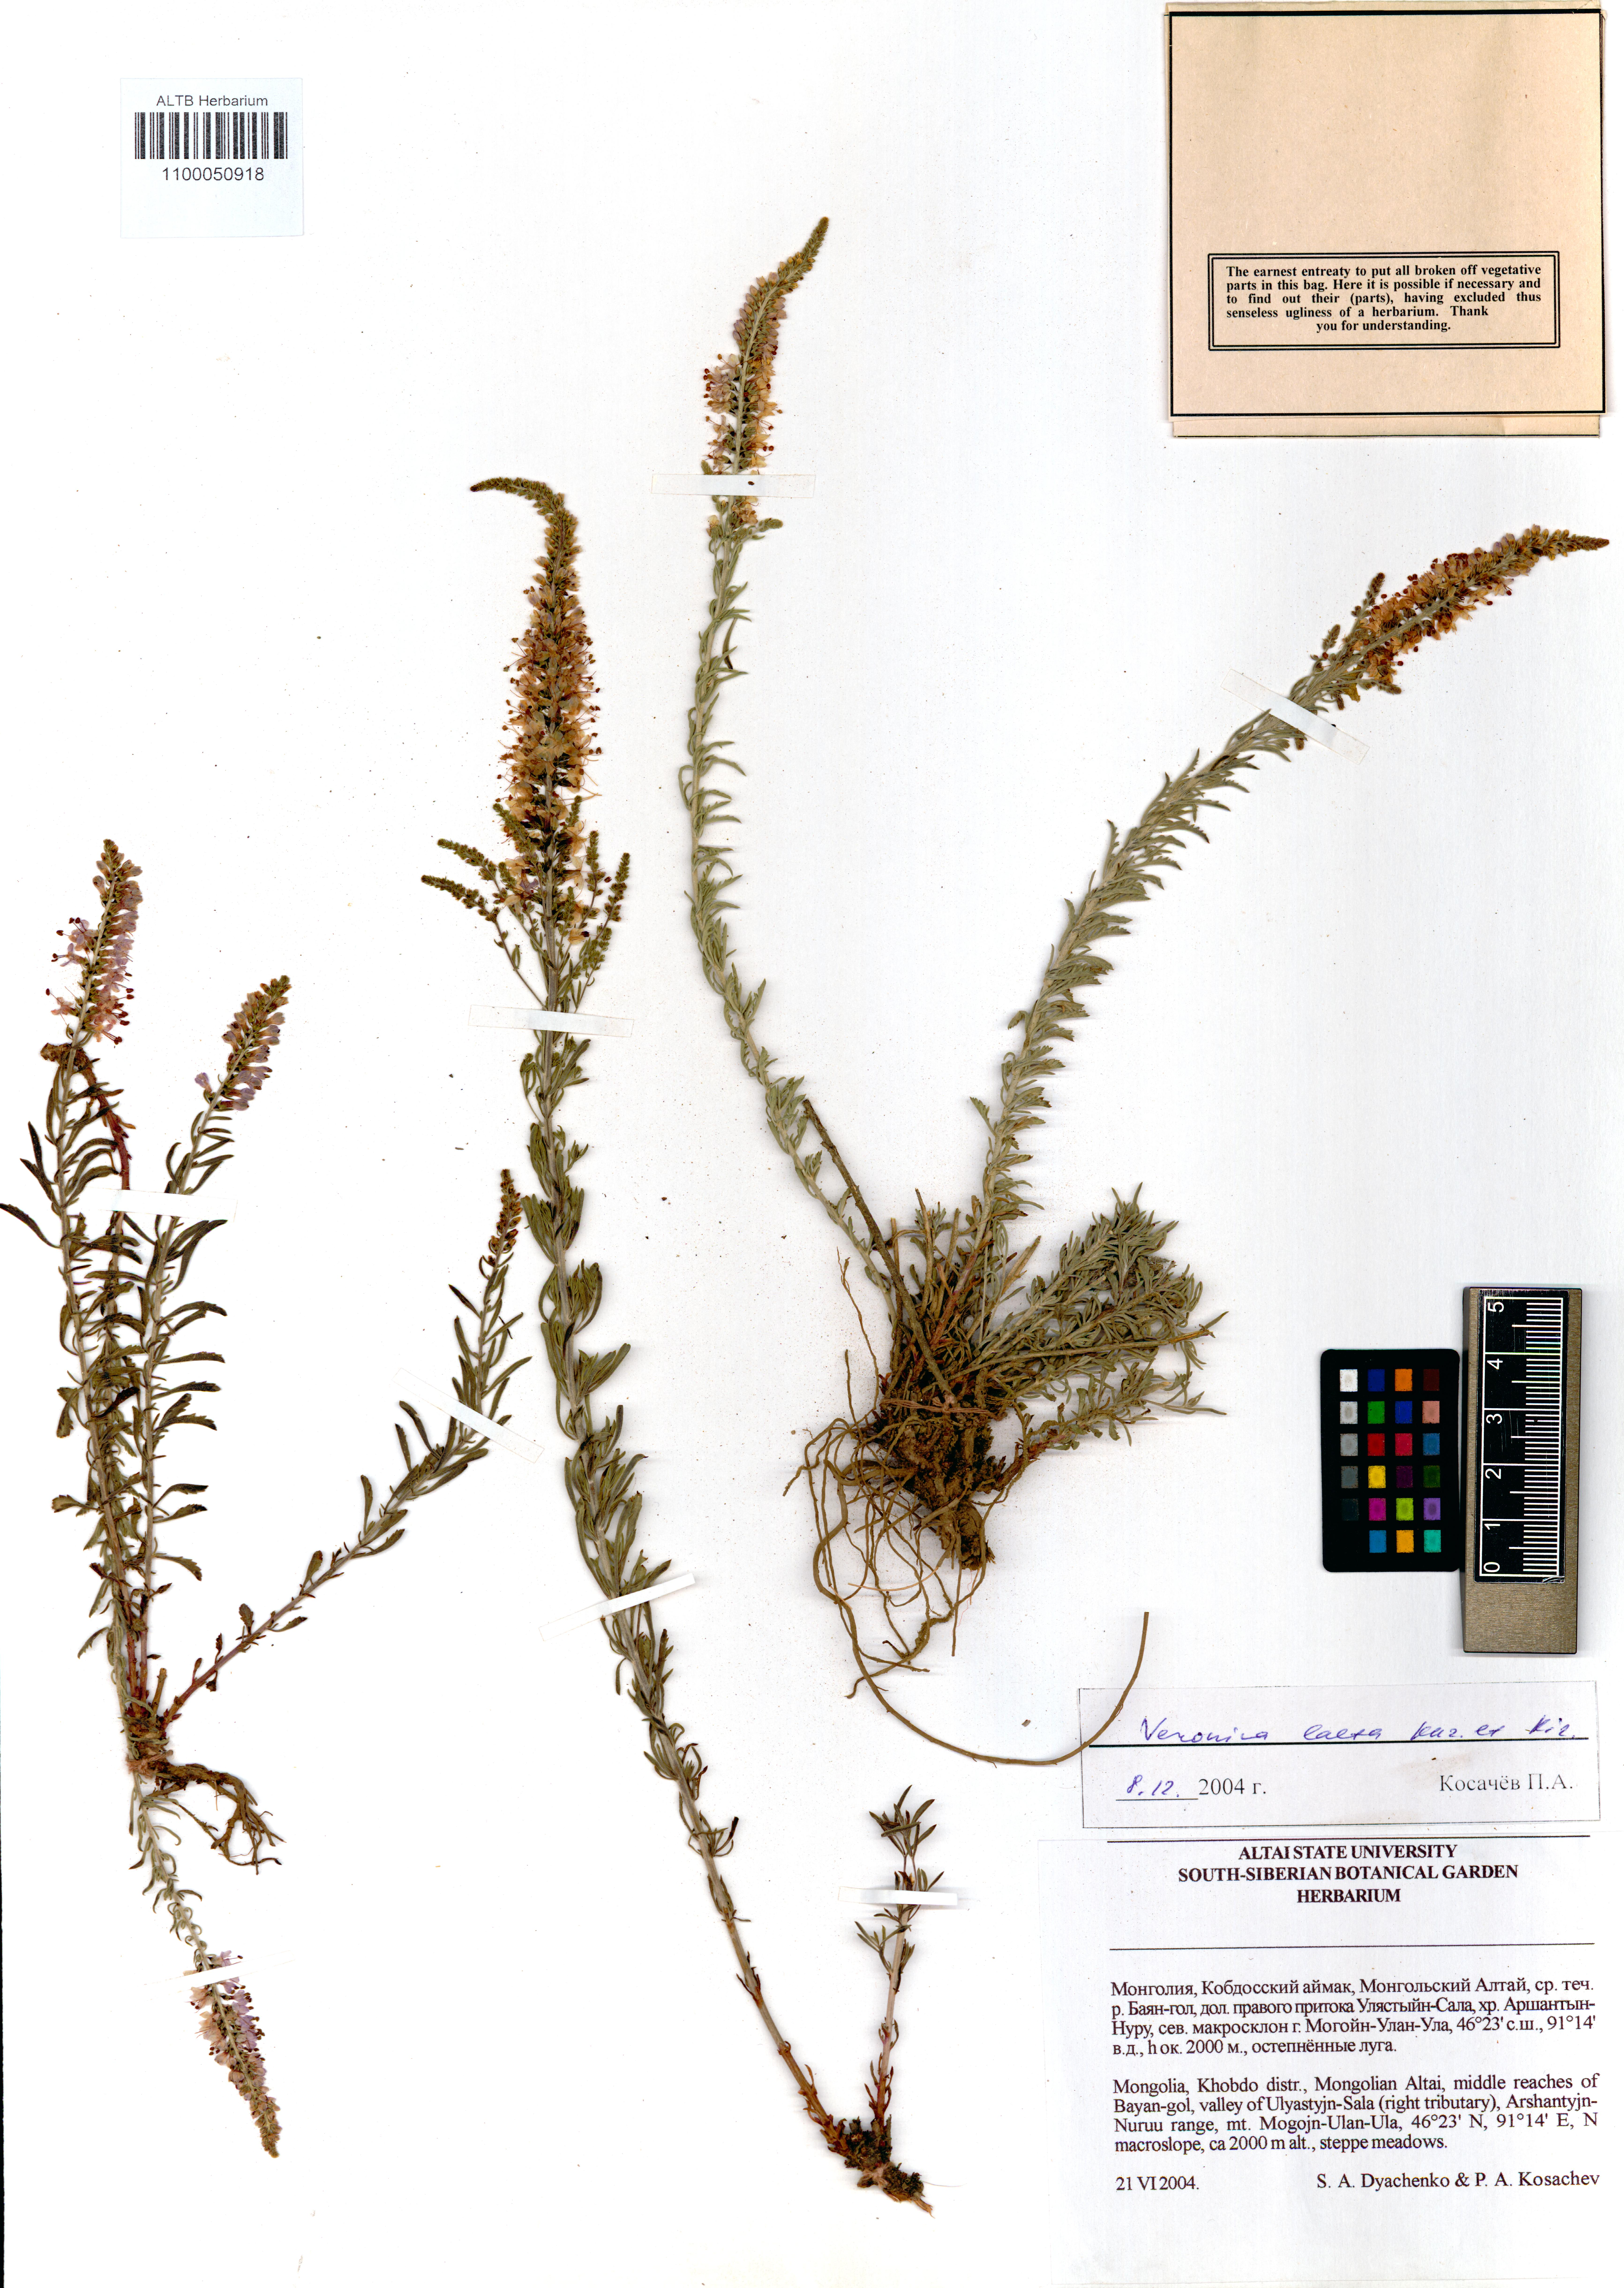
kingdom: Plantae
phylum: Tracheophyta
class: Magnoliopsida
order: Lamiales
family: Plantaginaceae
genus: Veronica
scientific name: Veronica laeta
